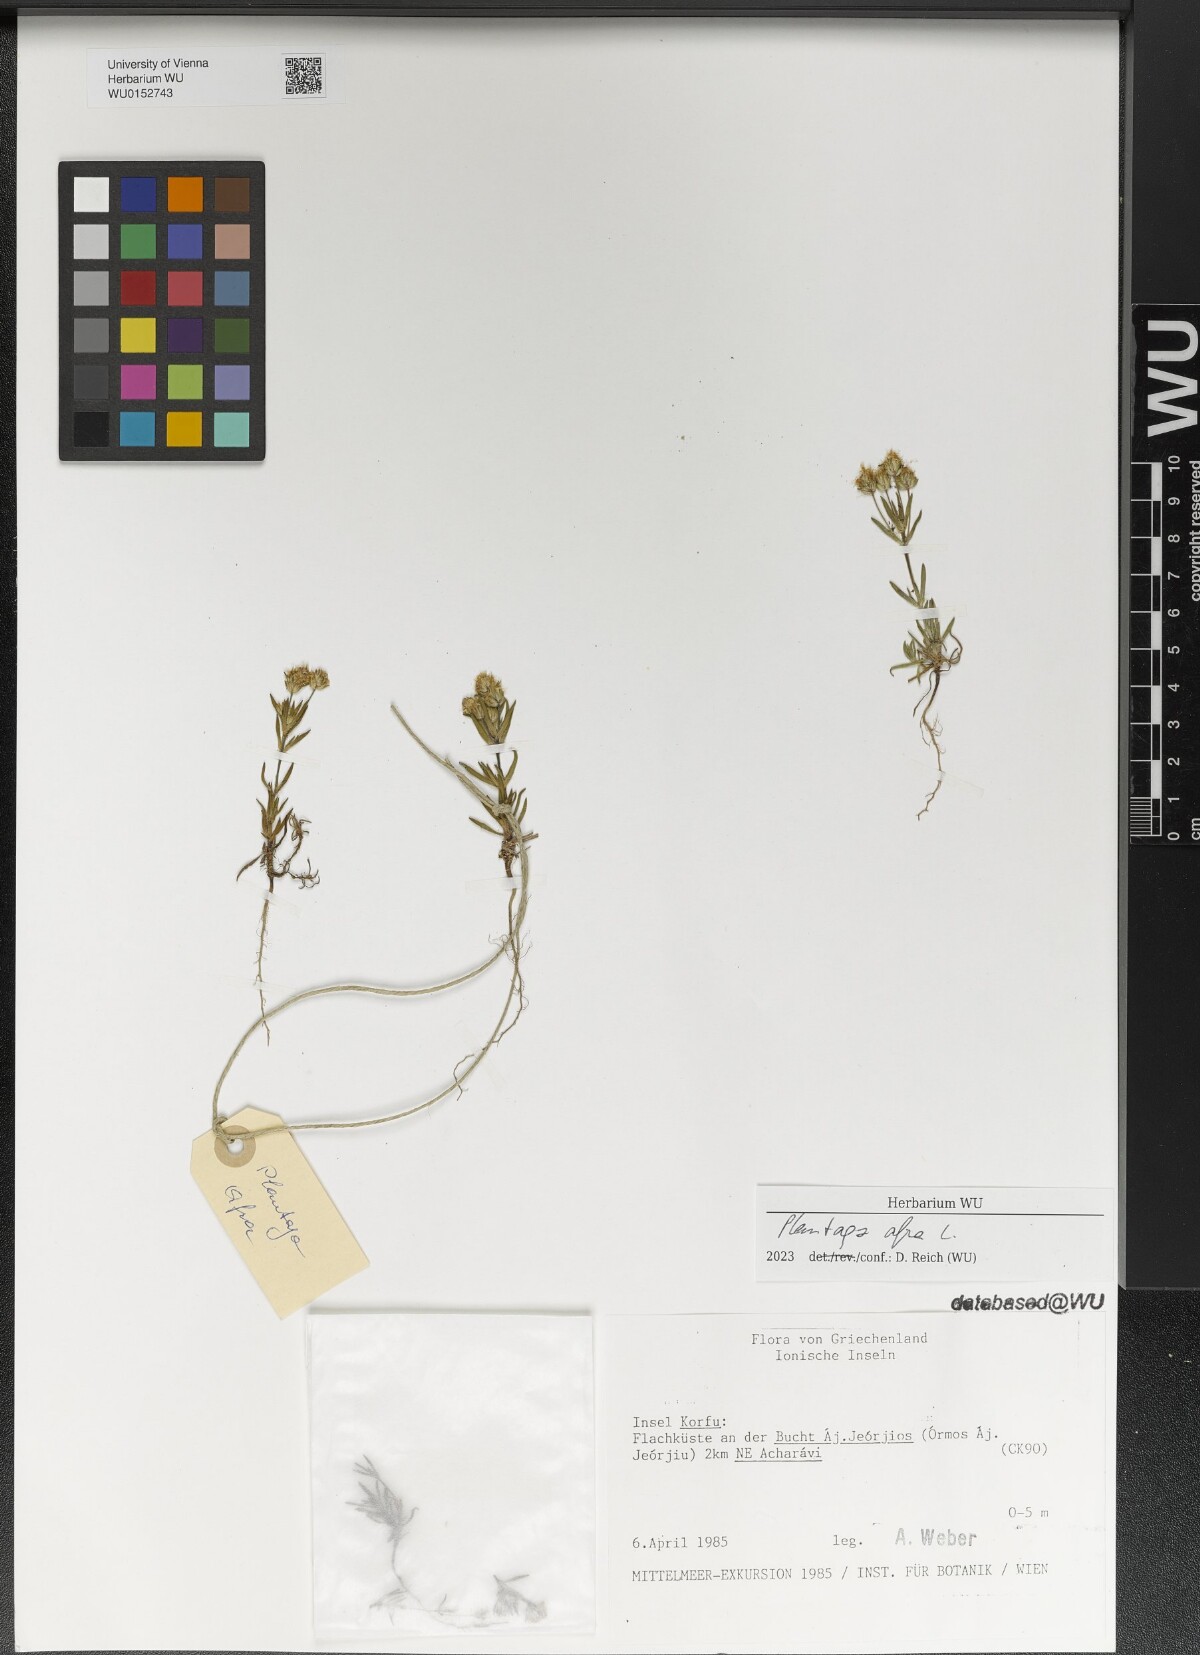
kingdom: Plantae
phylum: Tracheophyta
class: Magnoliopsida
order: Lamiales
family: Plantaginaceae
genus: Plantago
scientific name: Plantago afra
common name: Glandular plantain
